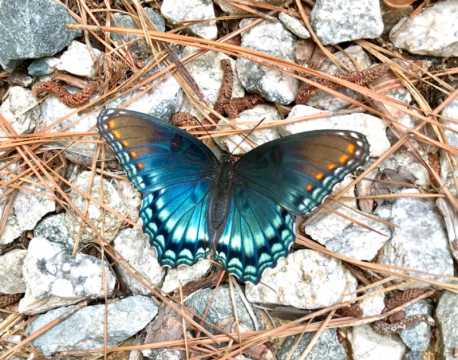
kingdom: Animalia
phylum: Arthropoda
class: Insecta
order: Lepidoptera
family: Nymphalidae
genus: Limenitis
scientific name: Limenitis arthemis
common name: Red-spotted Admiral
